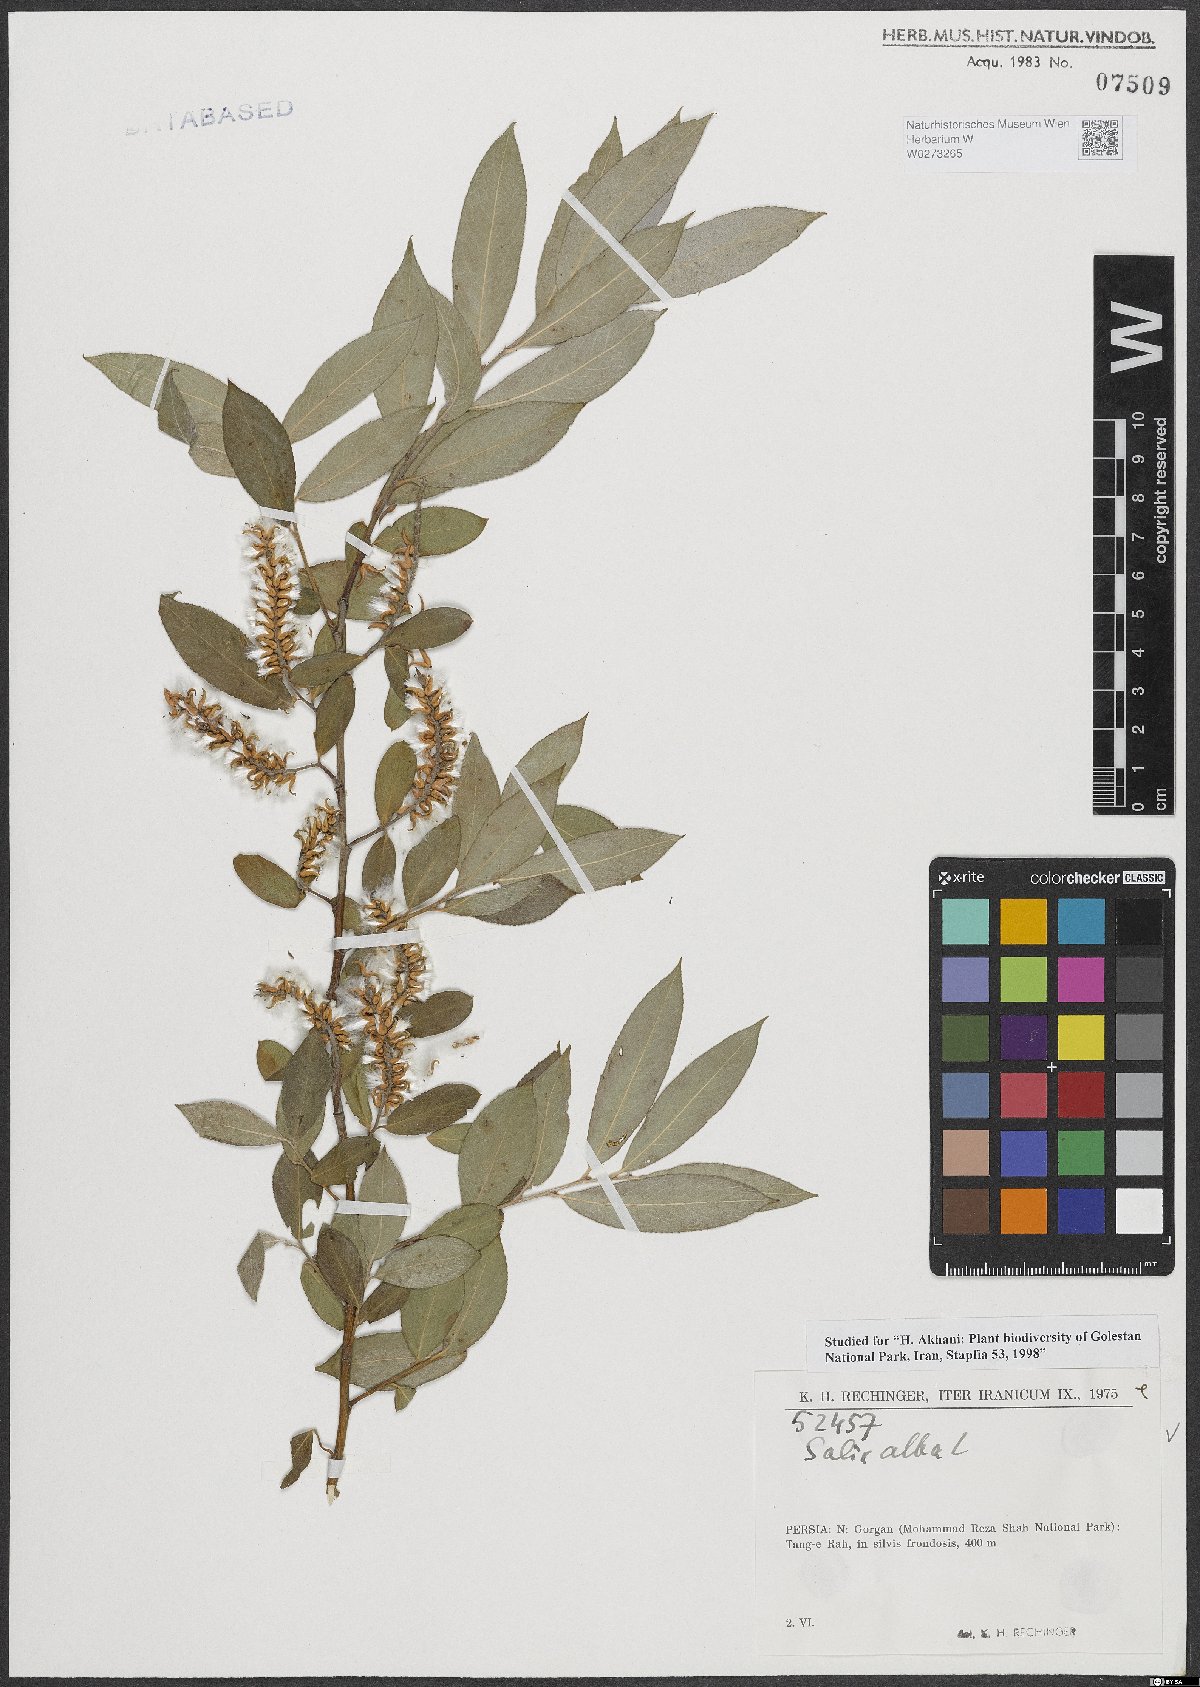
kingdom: Plantae
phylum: Tracheophyta
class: Magnoliopsida
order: Malpighiales
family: Salicaceae
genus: Salix
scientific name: Salix alba
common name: White willow
